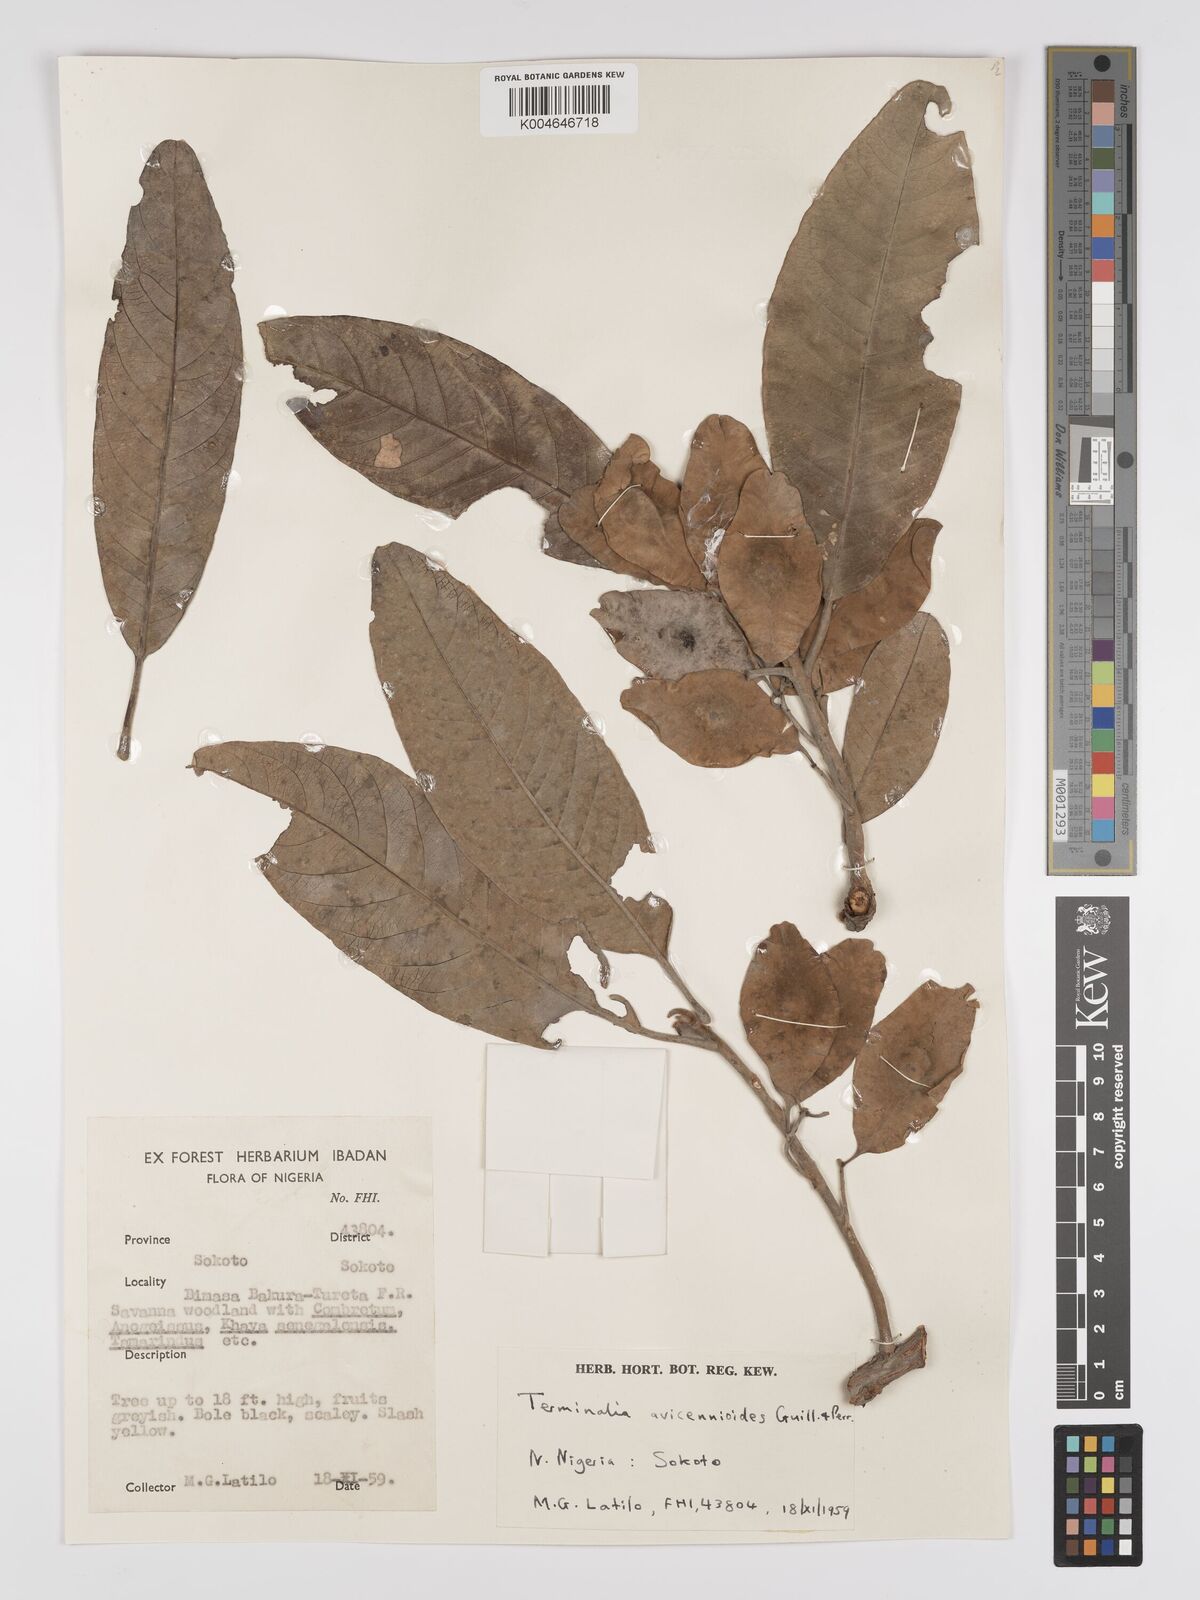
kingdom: Plantae
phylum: Tracheophyta
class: Magnoliopsida
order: Myrtales
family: Combretaceae
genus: Terminalia
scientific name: Terminalia avicennioides
